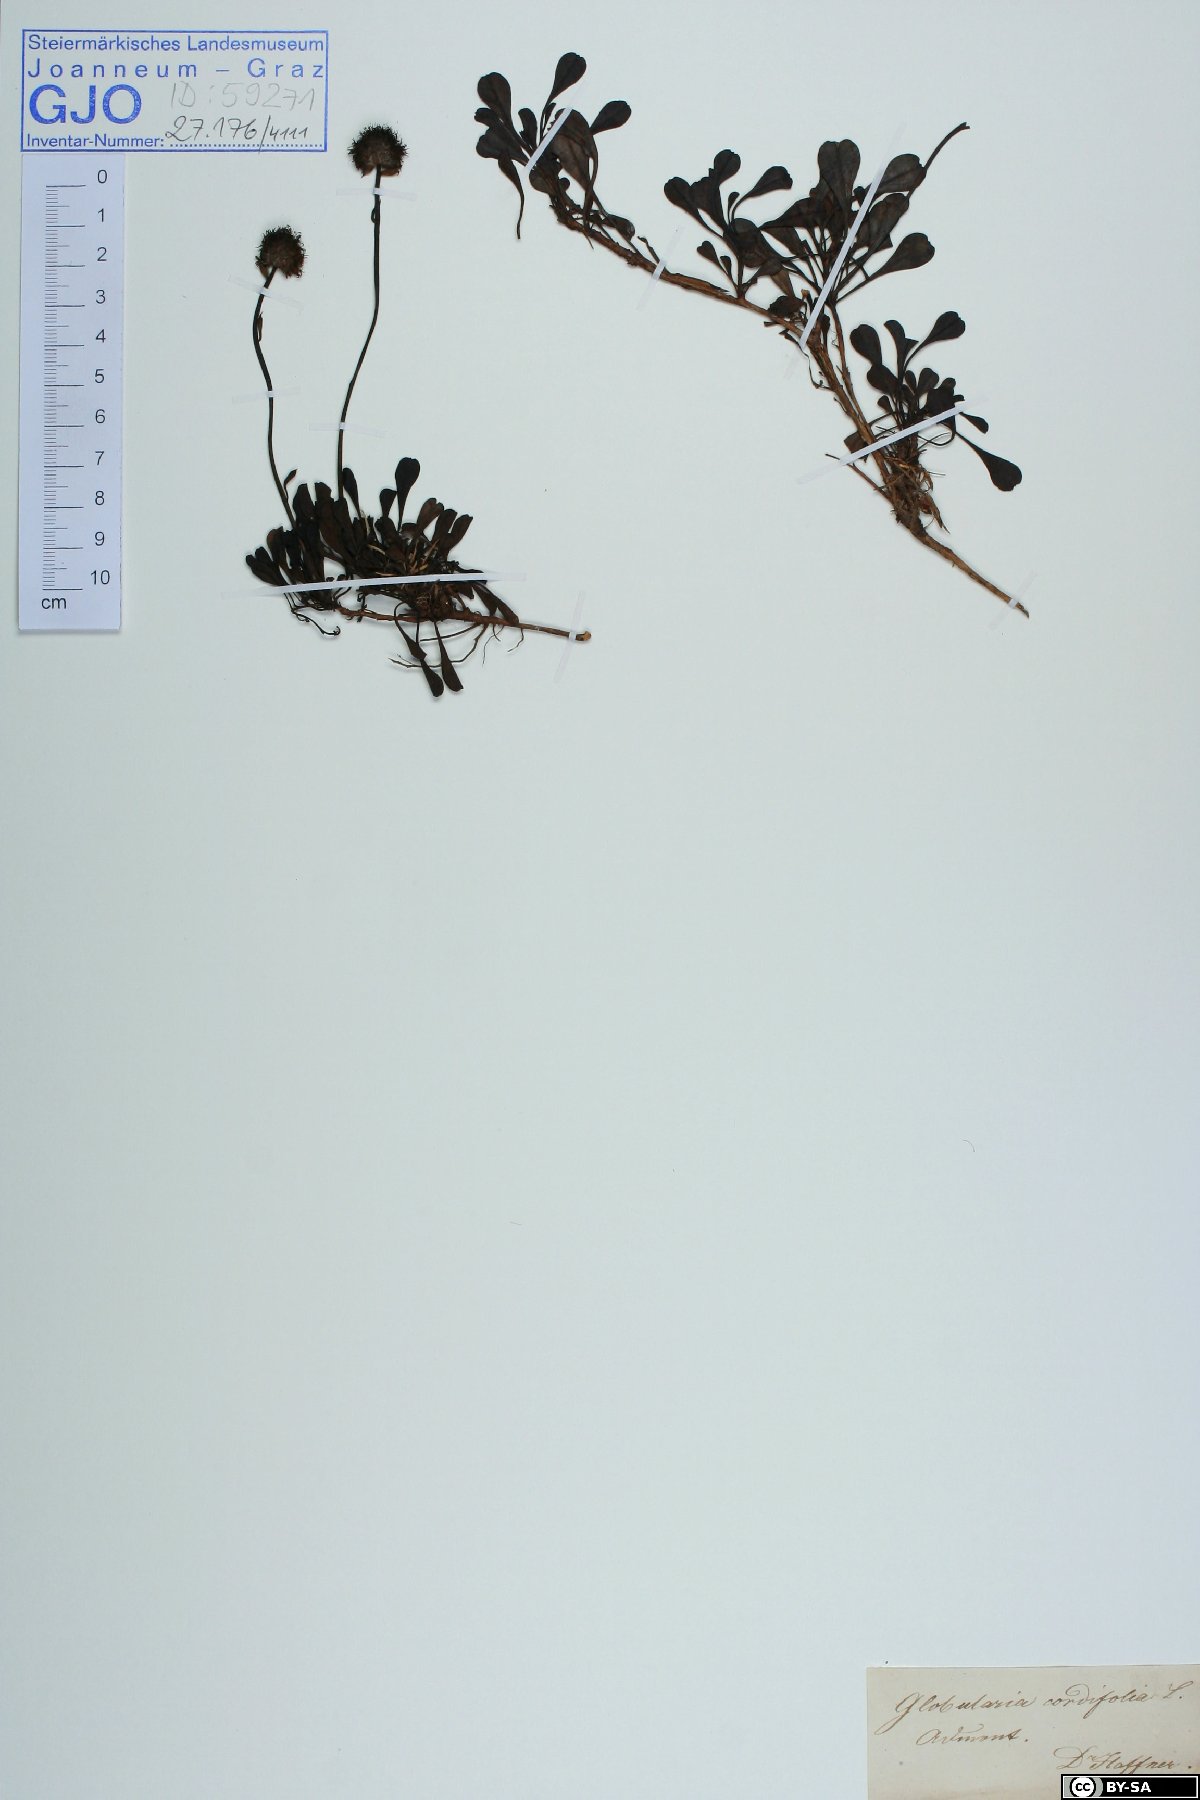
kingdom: Plantae
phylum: Tracheophyta
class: Magnoliopsida
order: Lamiales
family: Plantaginaceae
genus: Globularia
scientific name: Globularia cordifolia
